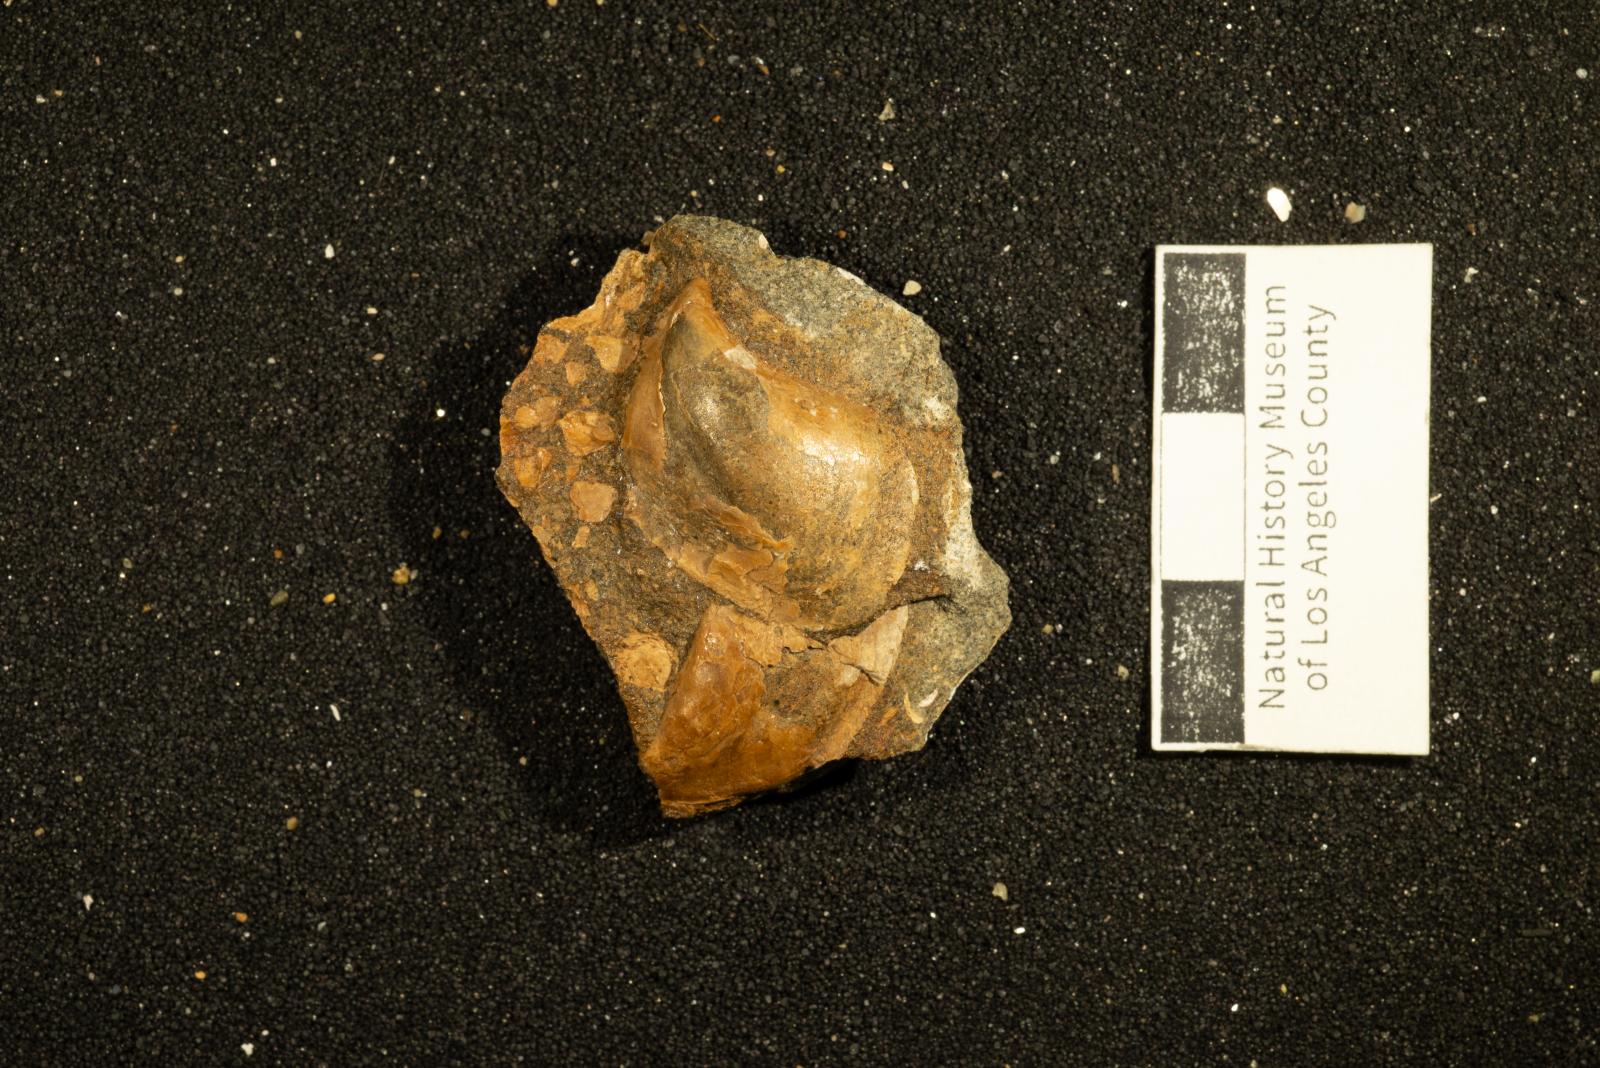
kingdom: Animalia
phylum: Mollusca
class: Bivalvia
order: Ostreida
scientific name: Ostreida
